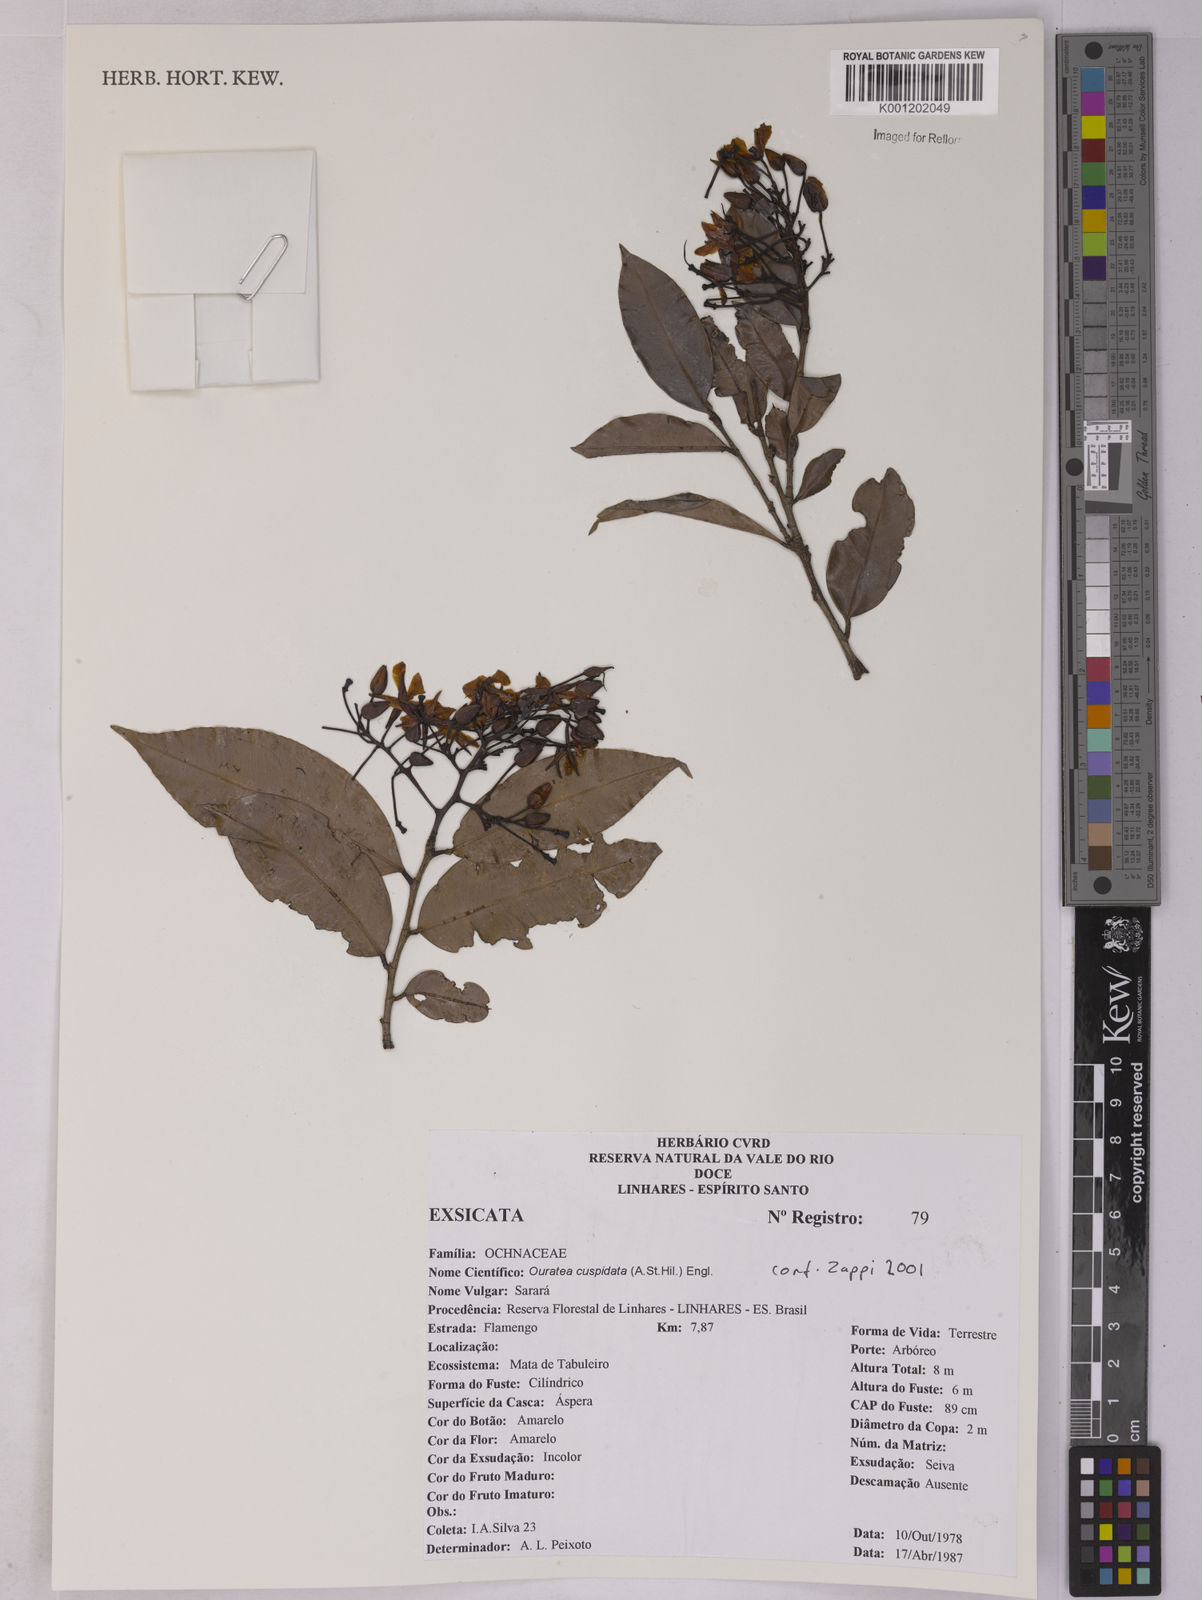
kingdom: Plantae
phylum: Tracheophyta
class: Magnoliopsida
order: Malpighiales
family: Ochnaceae
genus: Ouratea
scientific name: Ouratea cuspidata
